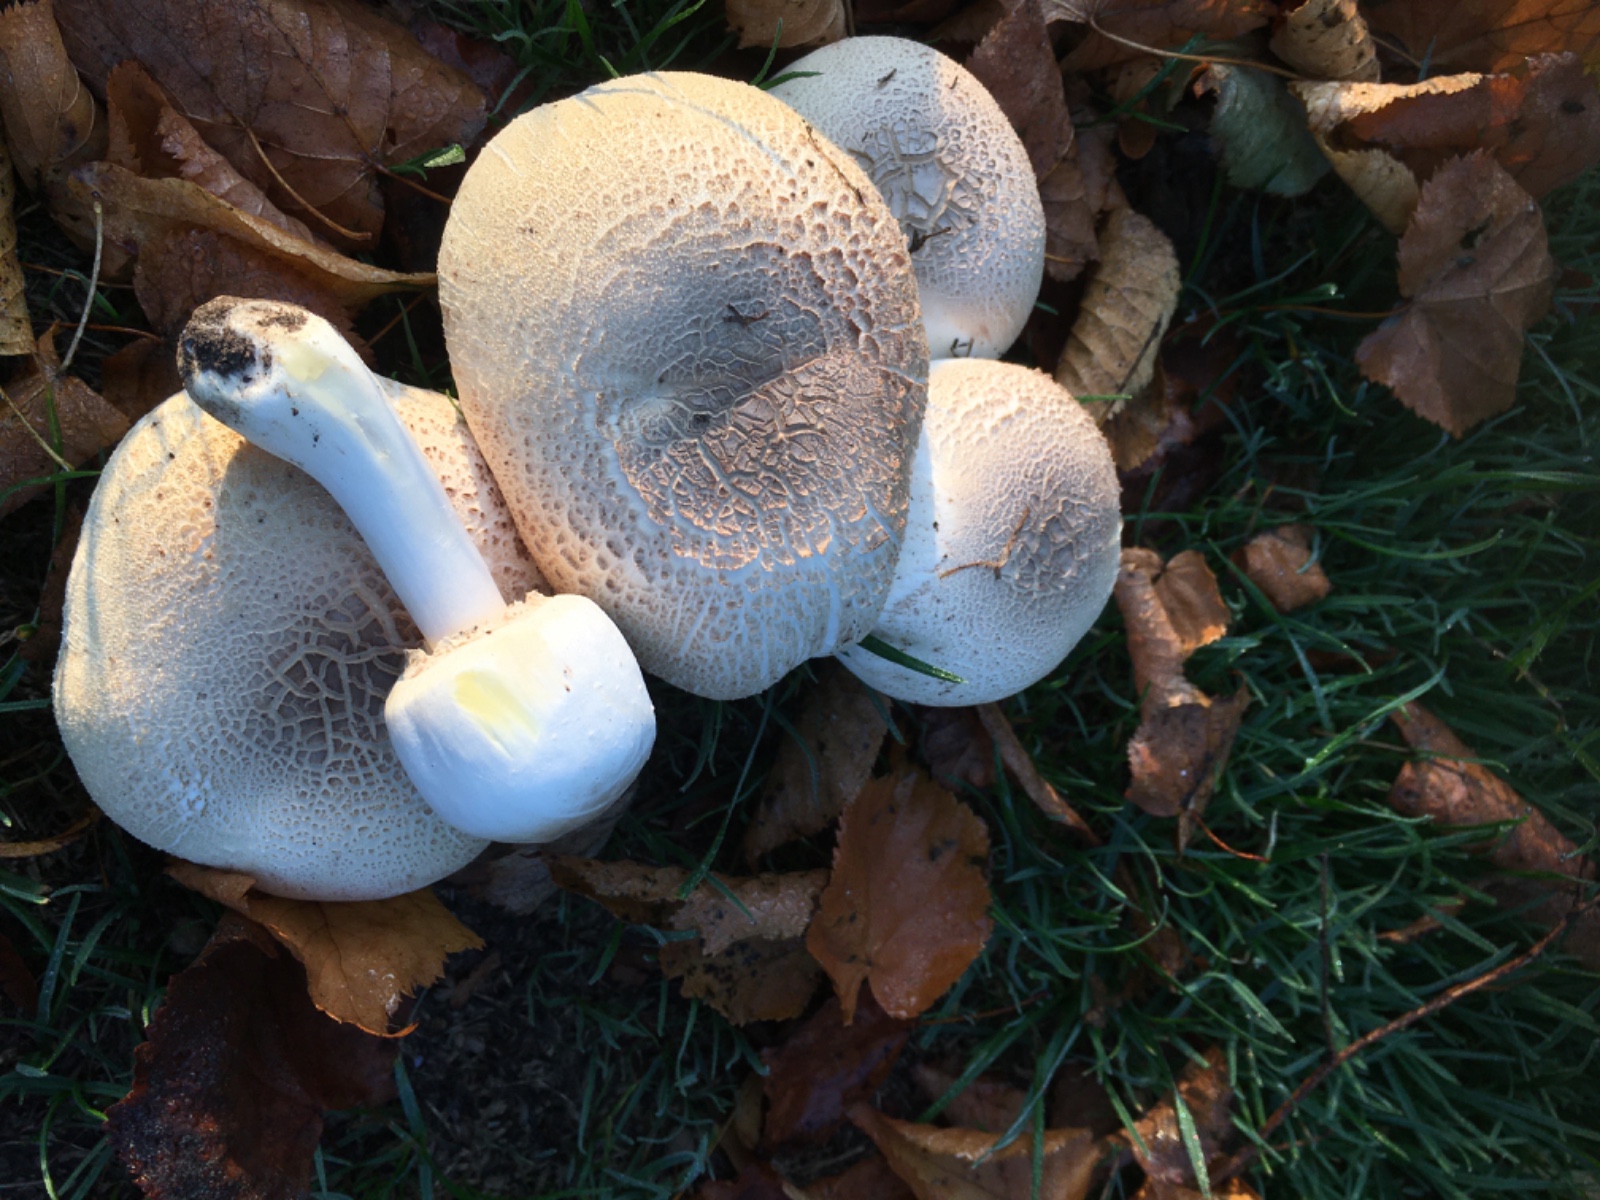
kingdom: Fungi
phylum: Basidiomycota
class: Agaricomycetes
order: Agaricales
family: Agaricaceae
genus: Agaricus
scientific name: Agaricus xanthodermus
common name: karbol-champignon
